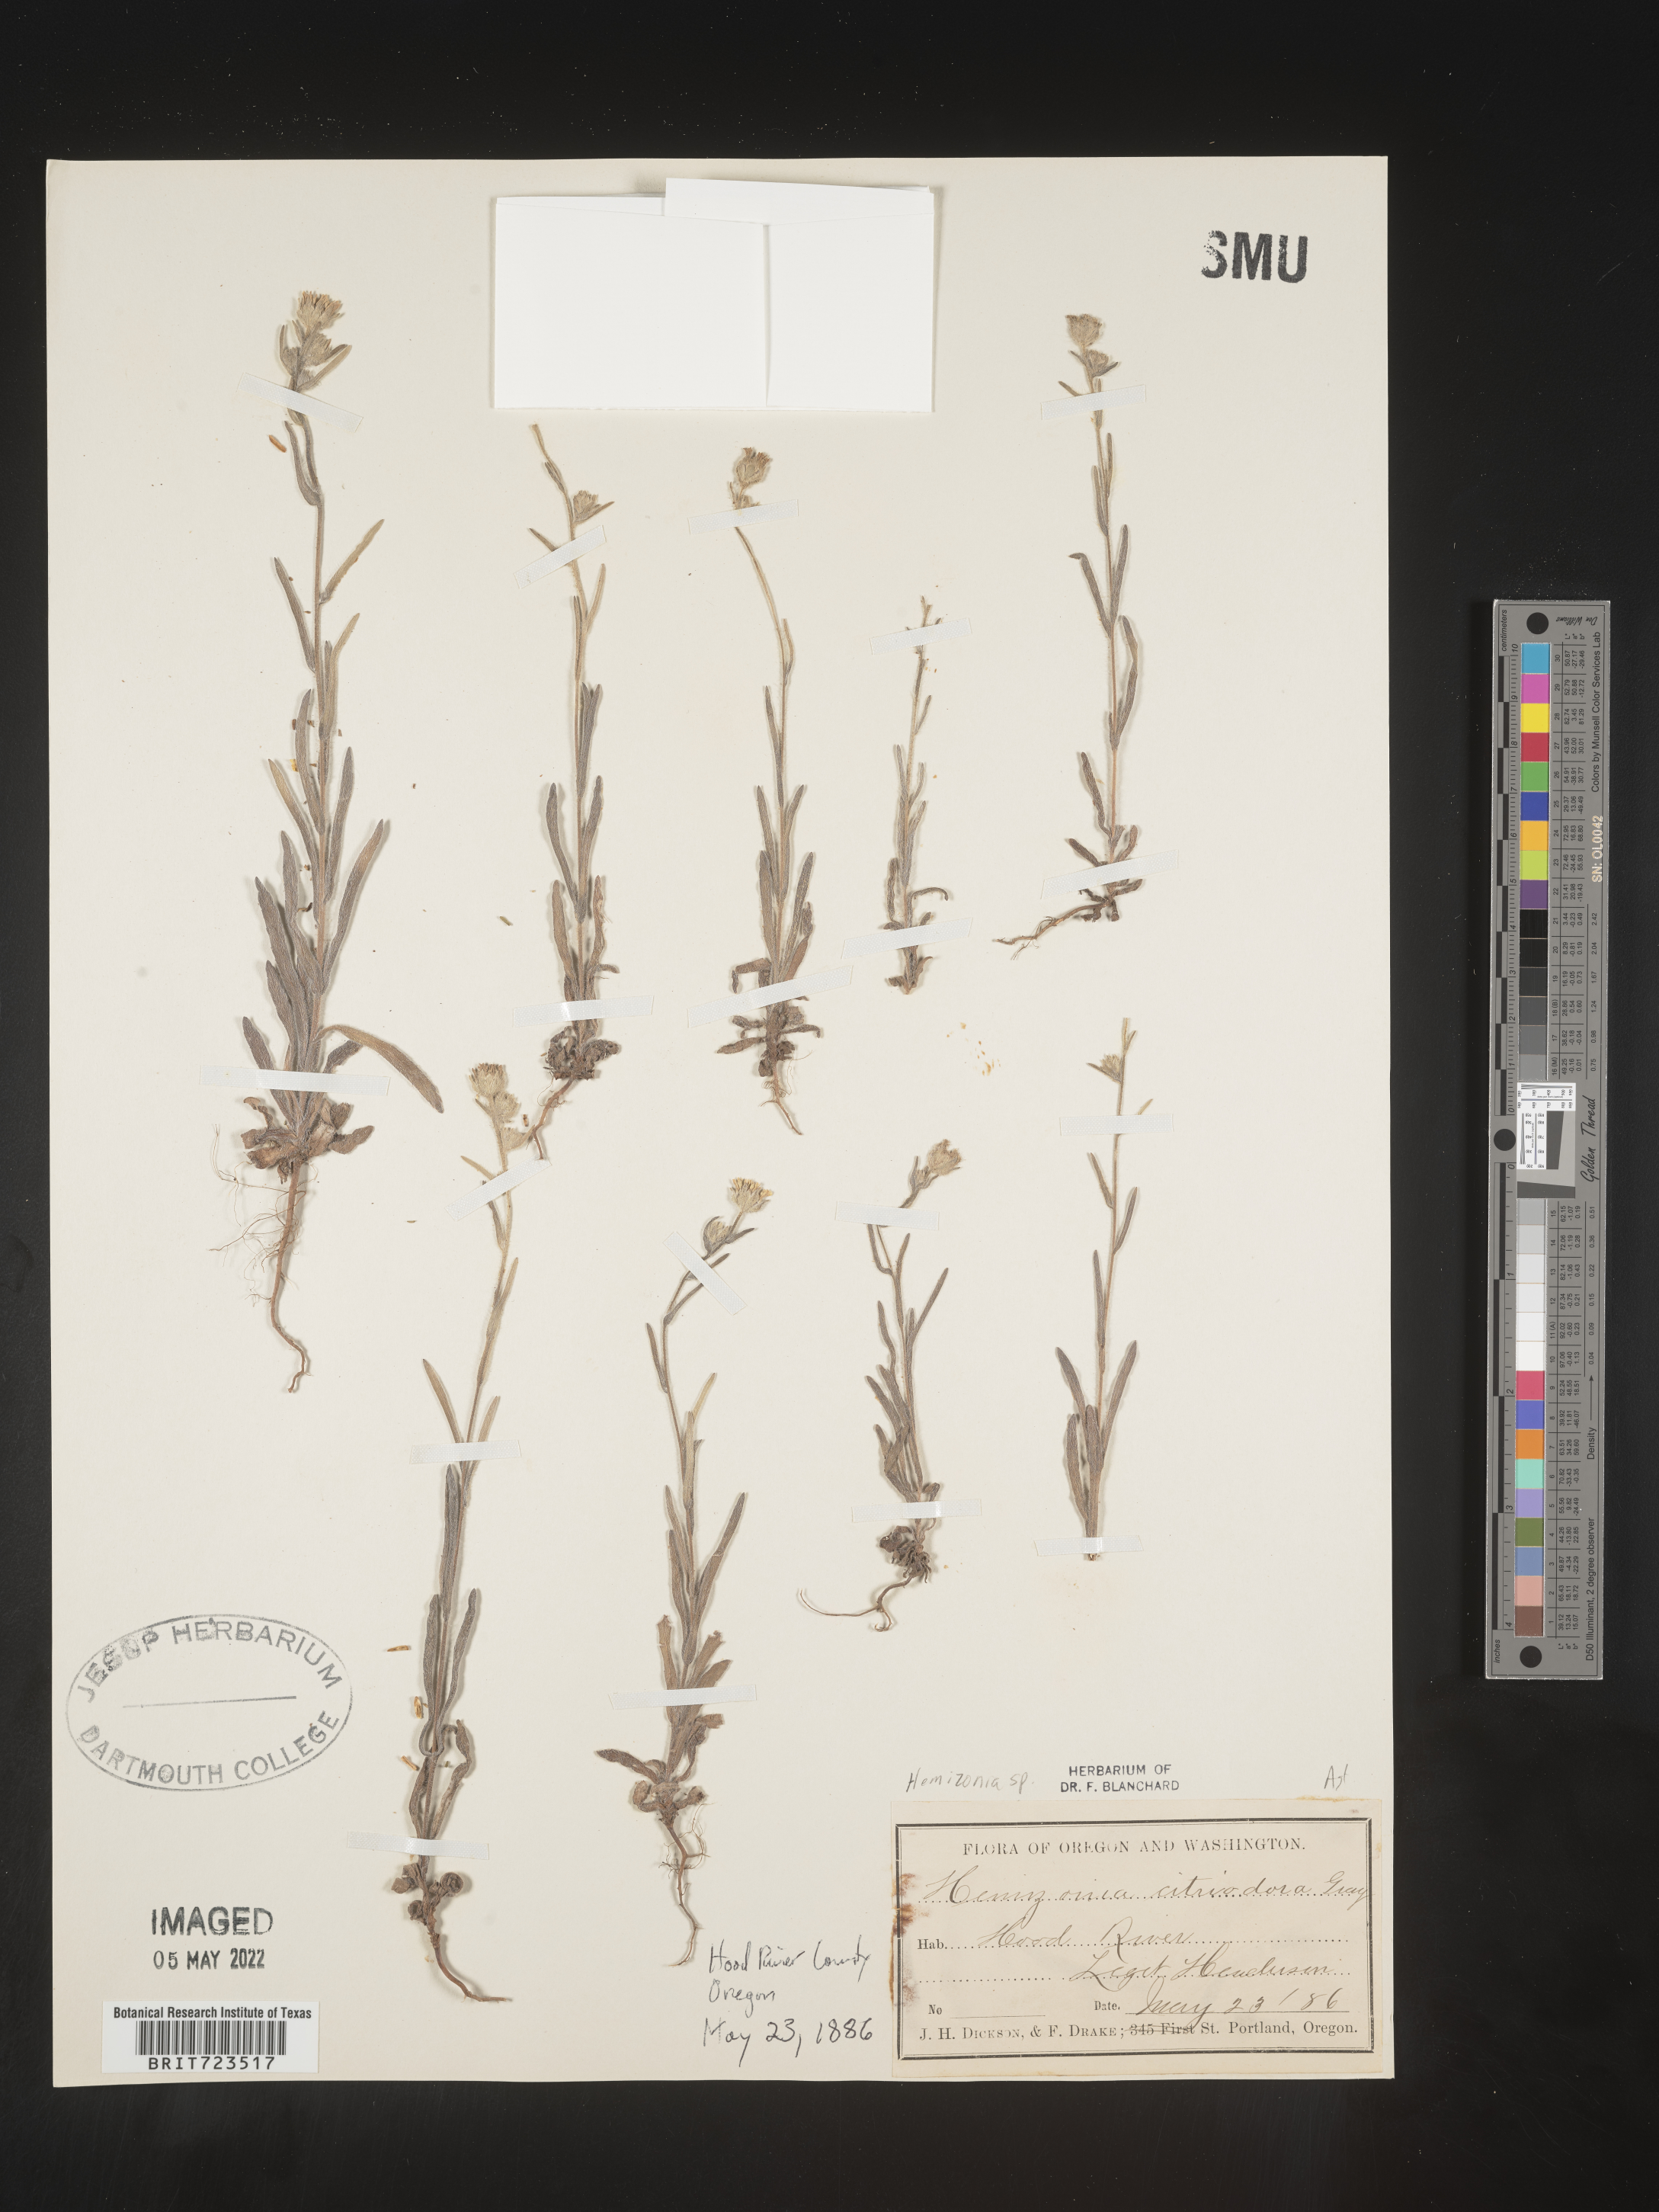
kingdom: Plantae
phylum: Tracheophyta
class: Magnoliopsida
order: Asterales
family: Asteraceae
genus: Hemizonia
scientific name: Hemizonia
